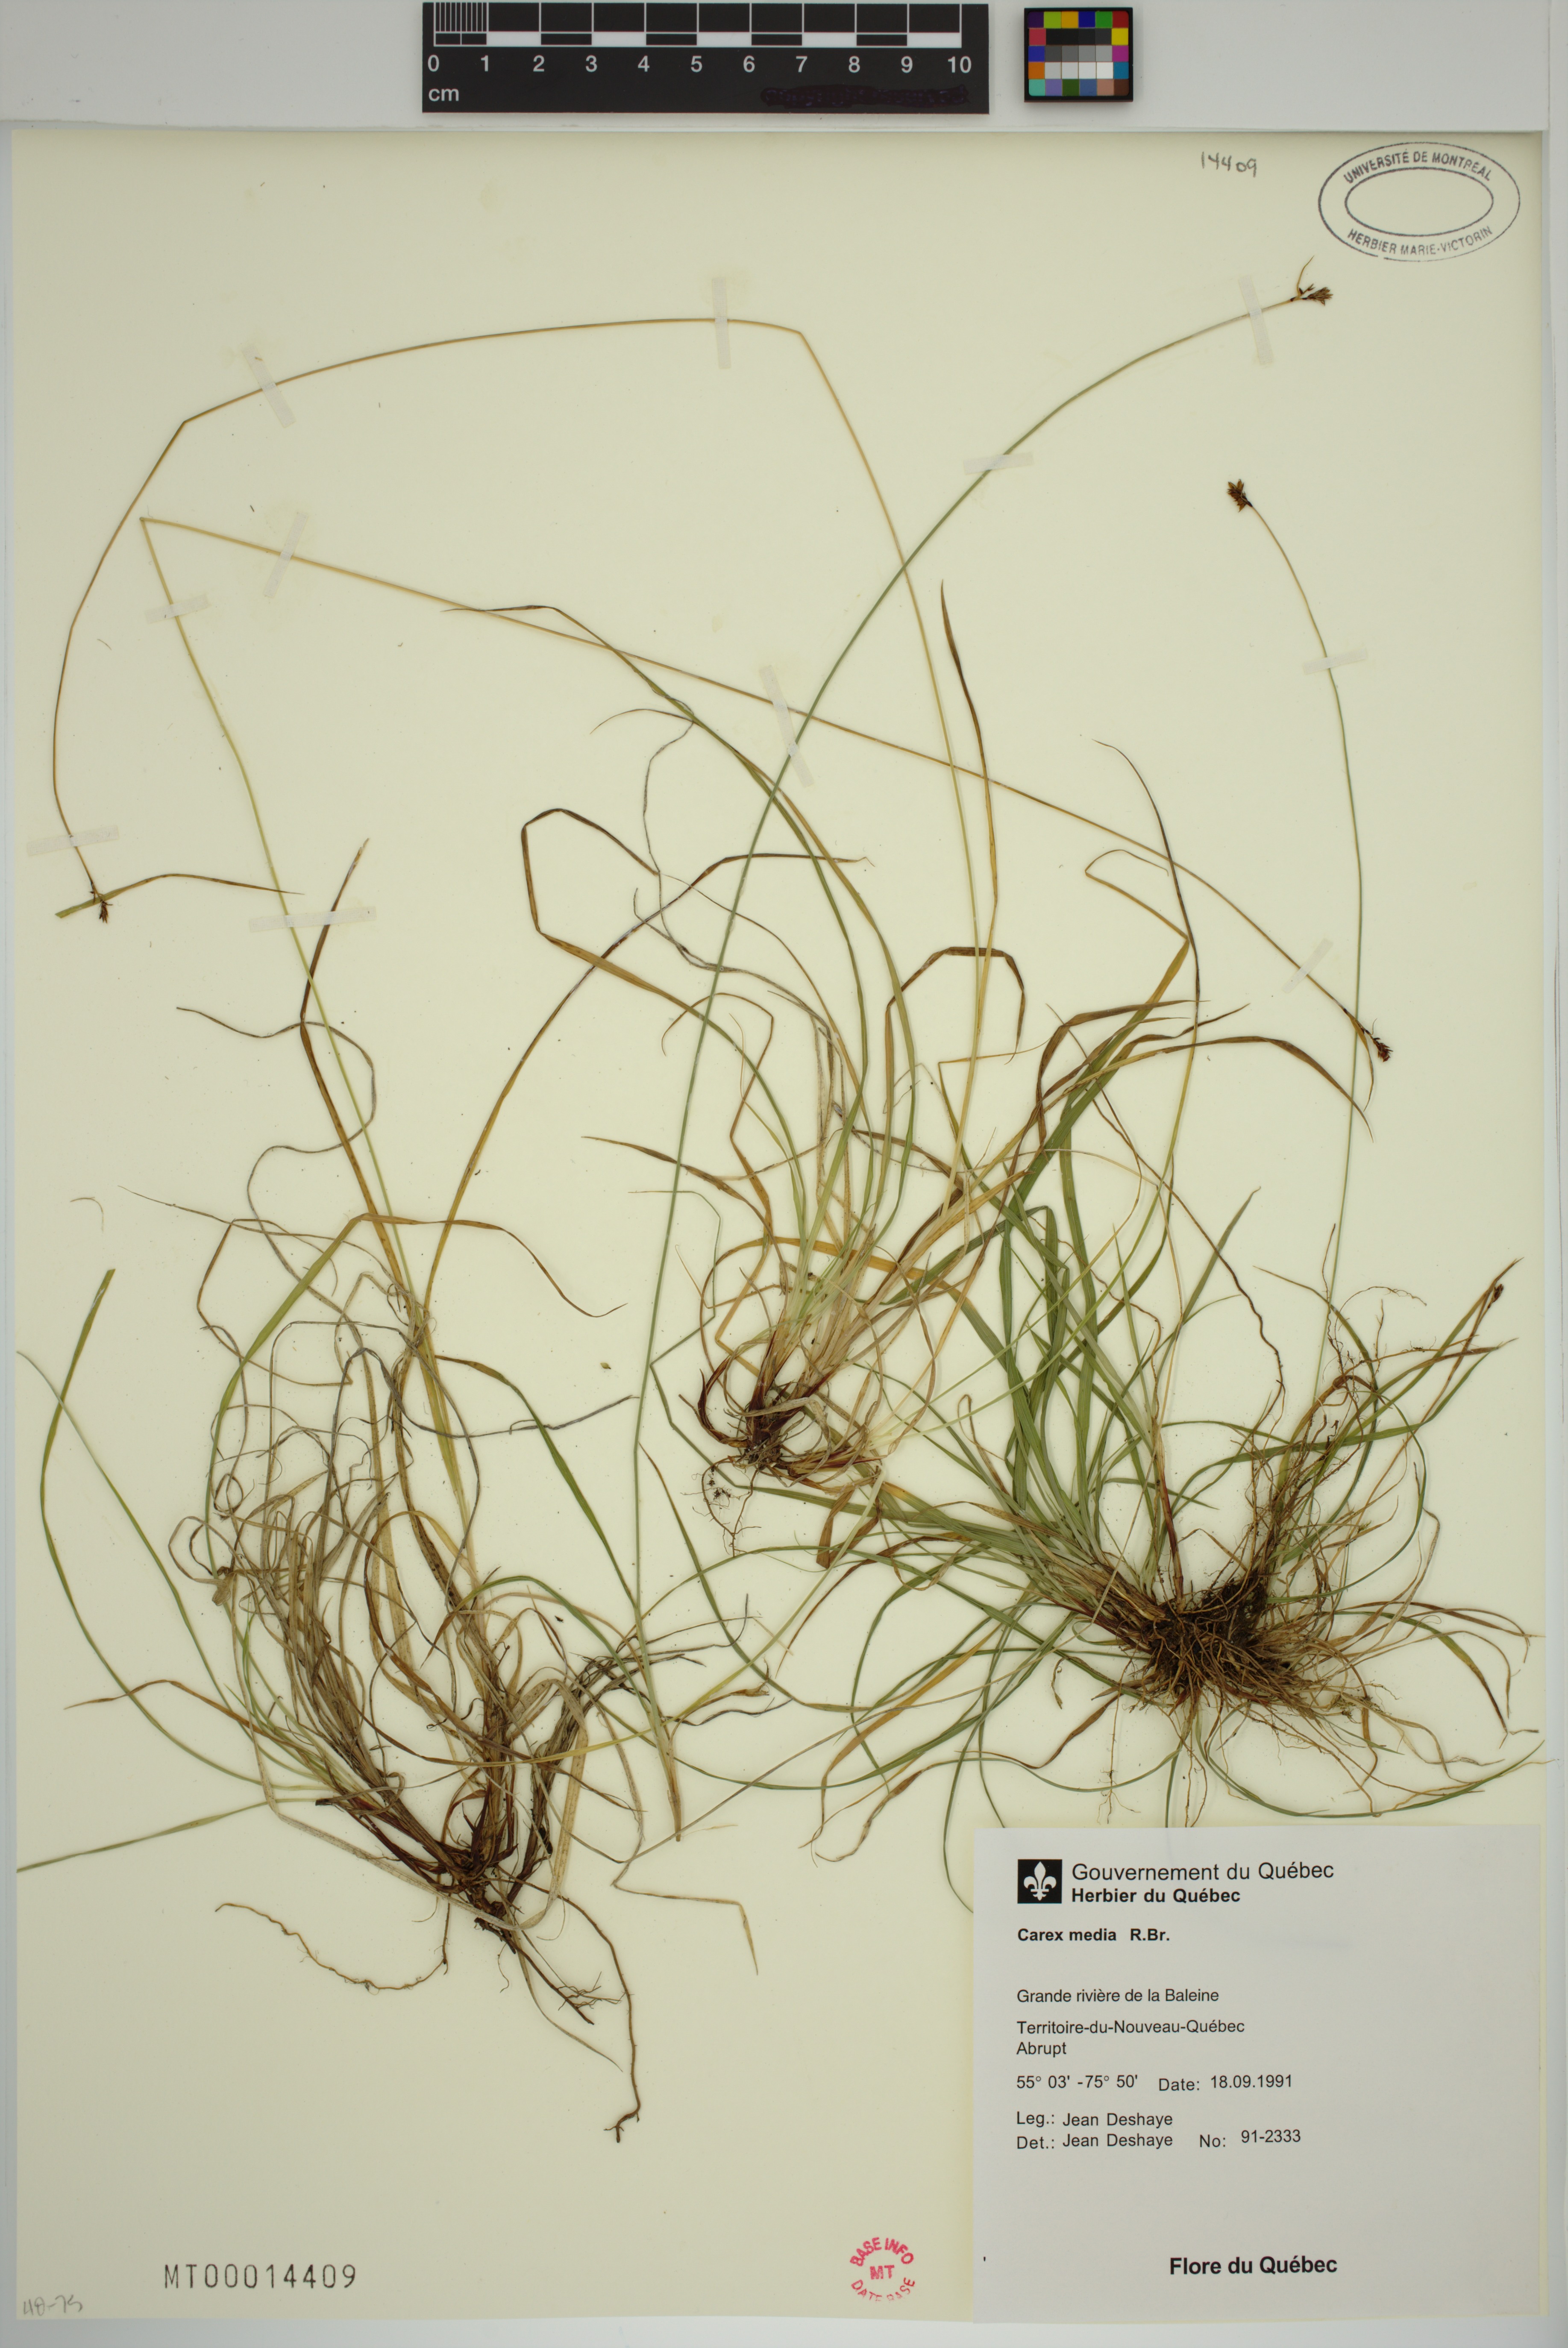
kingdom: Plantae
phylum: Tracheophyta
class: Liliopsida
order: Poales
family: Cyperaceae
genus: Carex
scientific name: Carex media
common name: Alpine sedge
